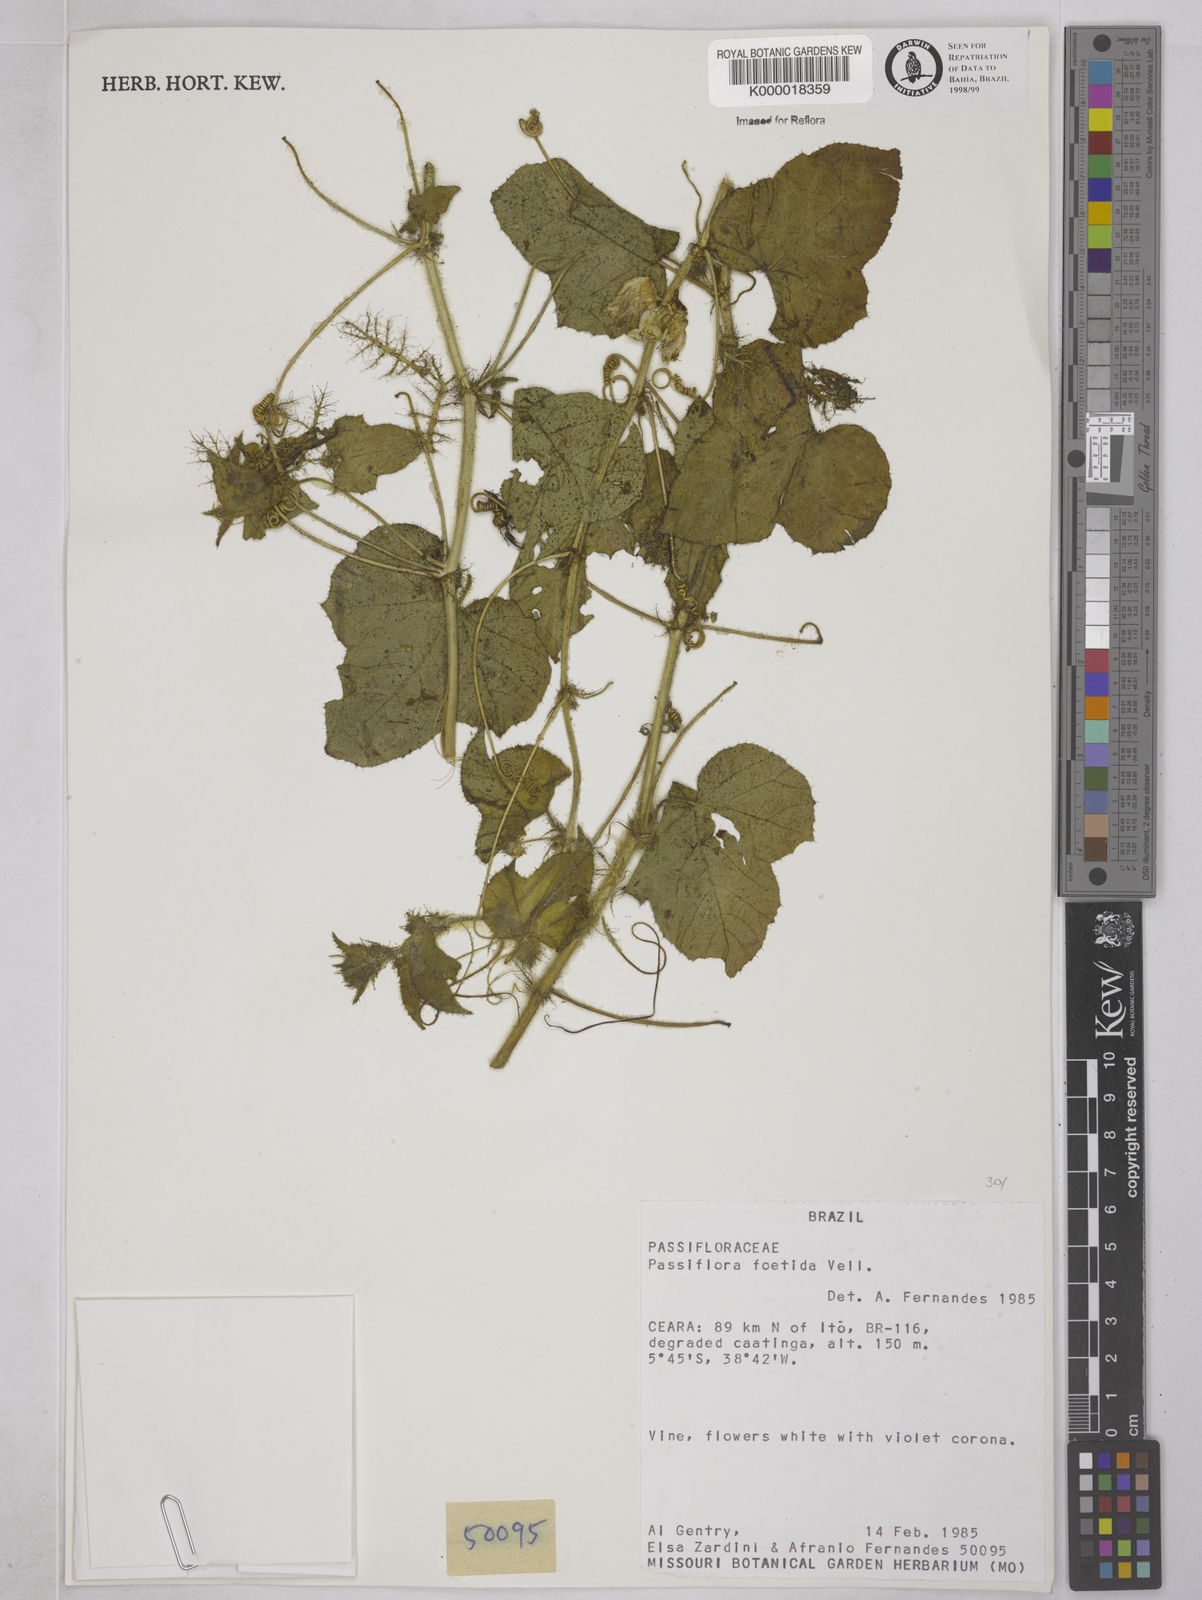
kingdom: Plantae
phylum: Tracheophyta
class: Magnoliopsida
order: Malpighiales
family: Passifloraceae
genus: Passiflora
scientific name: Passiflora foetida
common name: Fetid passionflower
